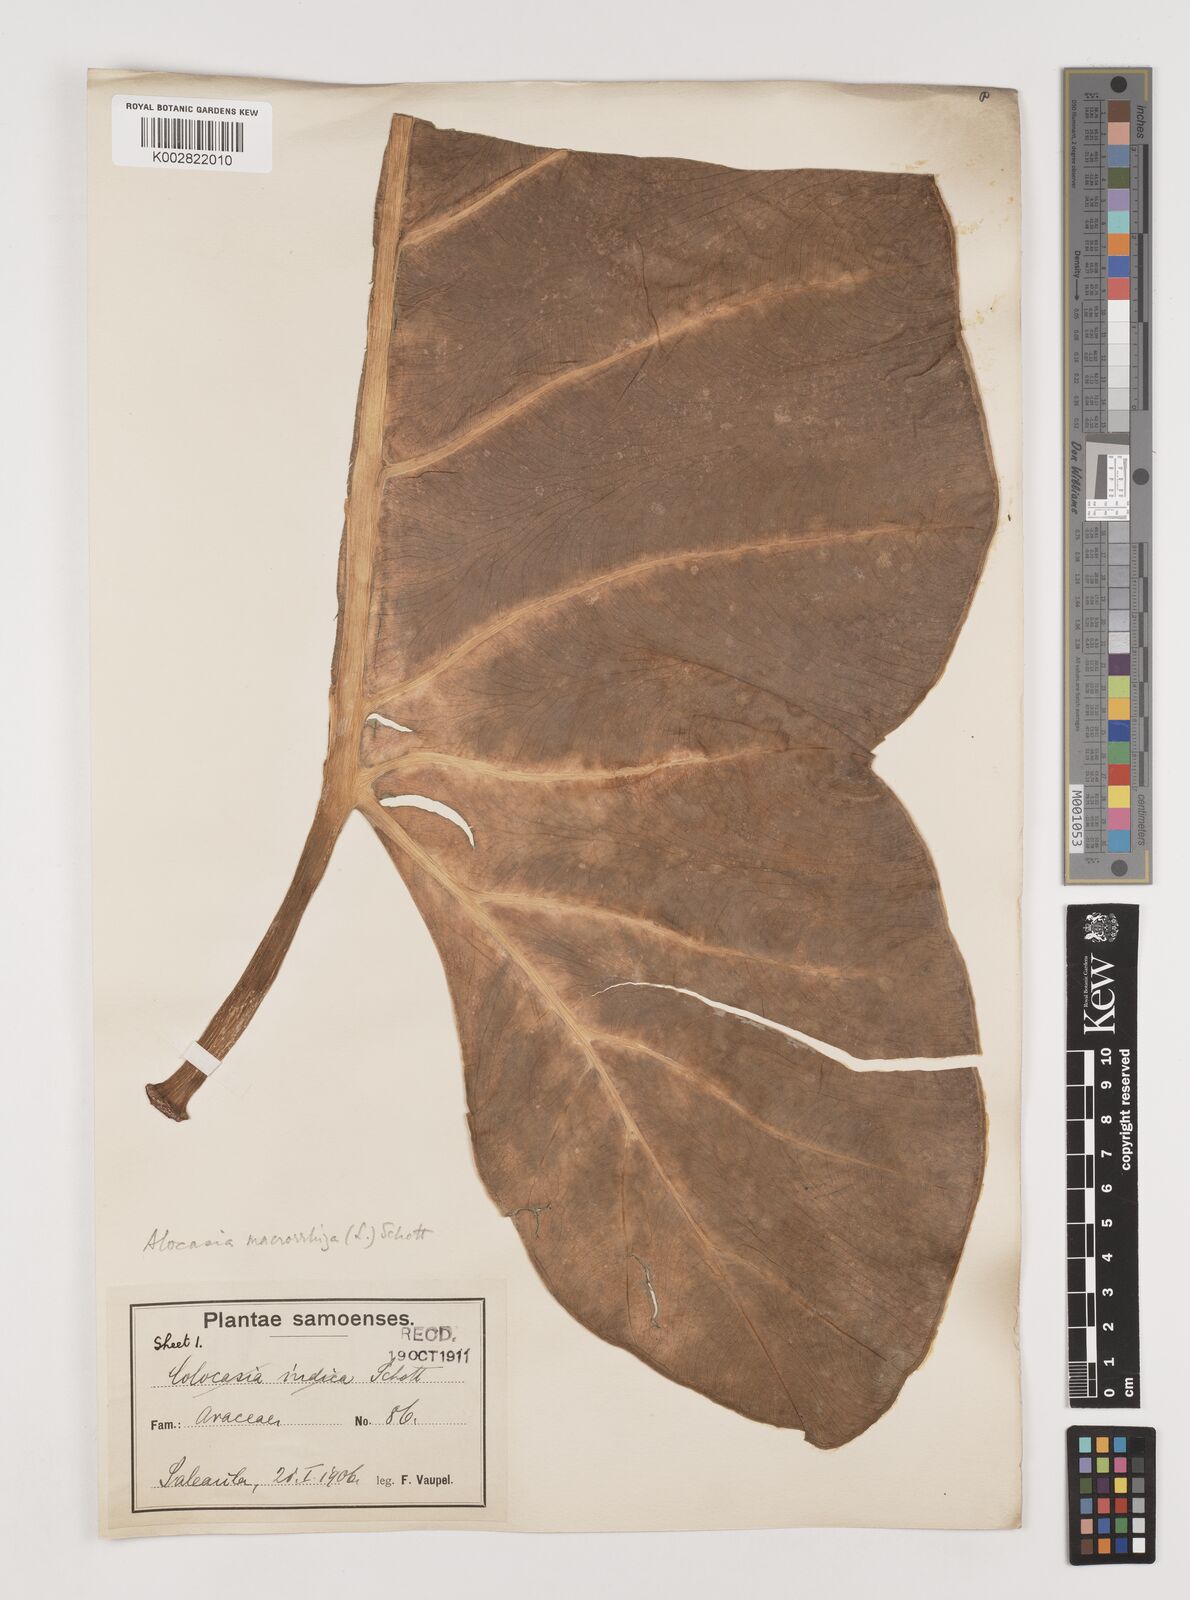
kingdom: Plantae
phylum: Tracheophyta
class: Liliopsida
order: Alismatales
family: Araceae
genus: Alocasia
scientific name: Alocasia macrorrhizos
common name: Giant taro
